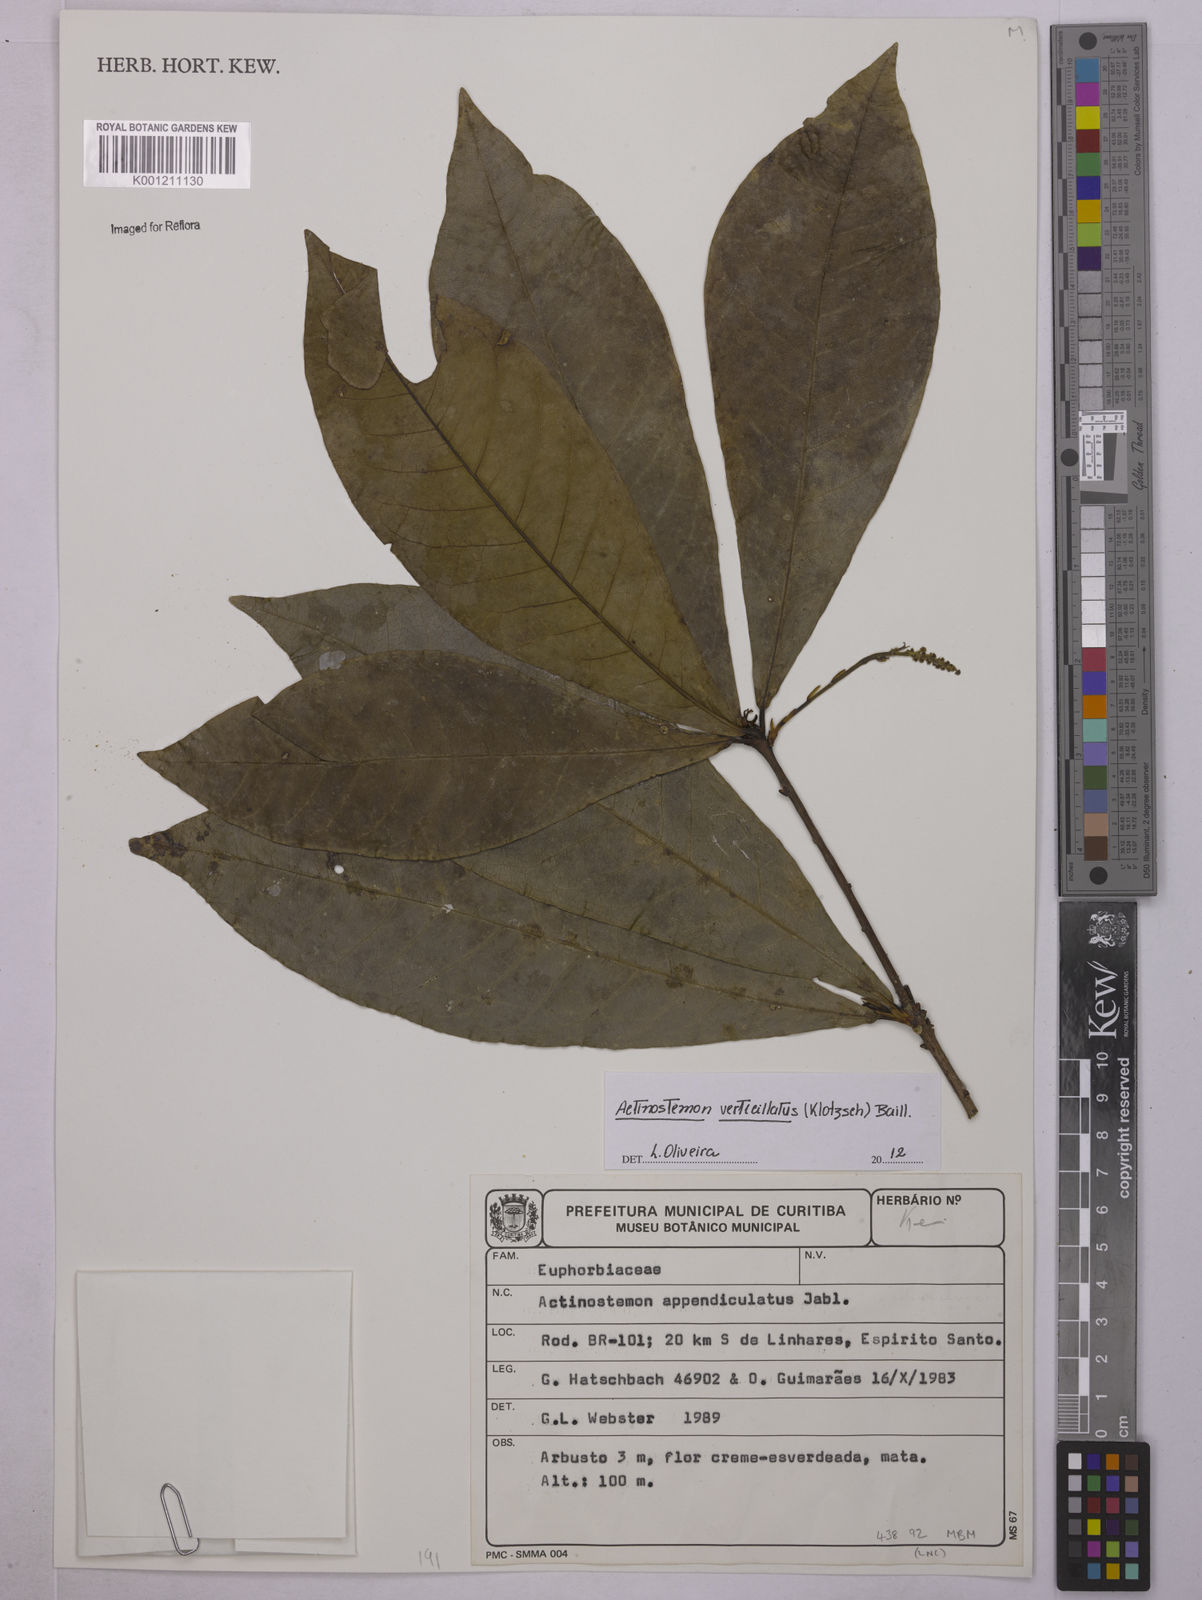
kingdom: Plantae
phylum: Tracheophyta
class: Magnoliopsida
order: Malpighiales
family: Euphorbiaceae
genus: Actinostemon
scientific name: Actinostemon verticillatus
